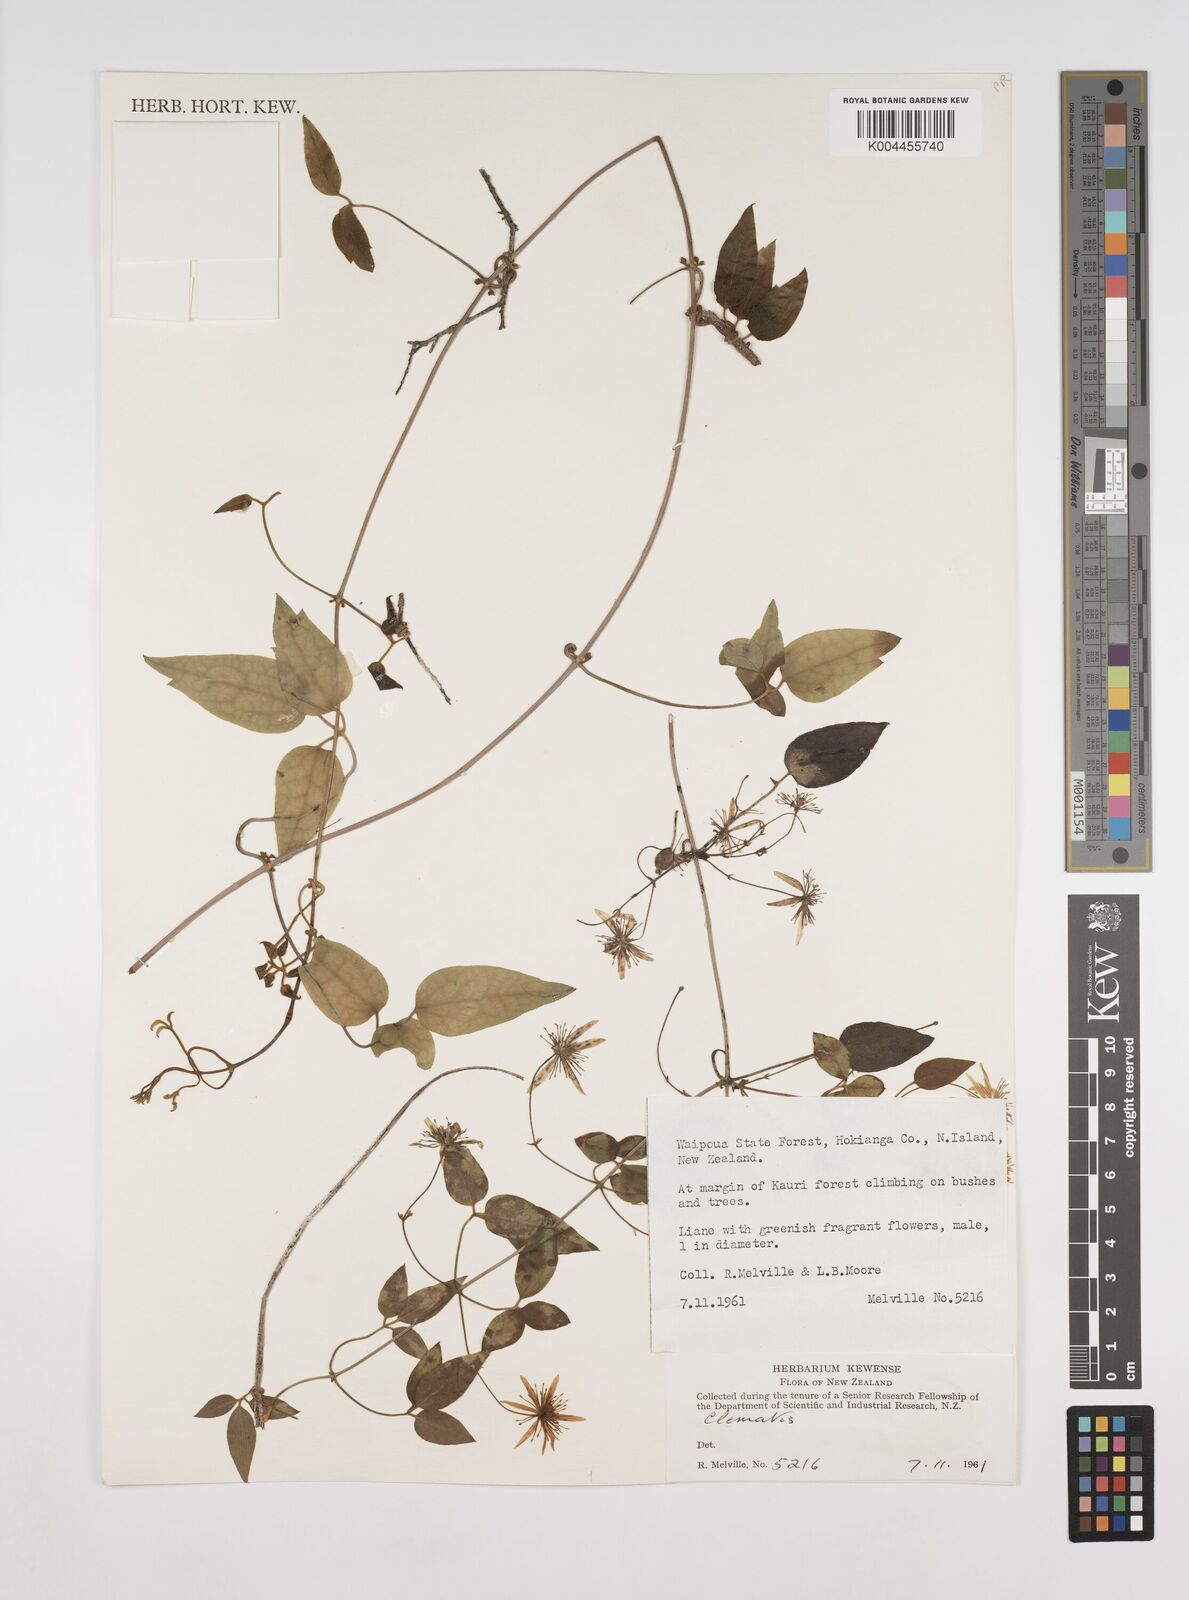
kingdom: Plantae
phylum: Tracheophyta
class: Magnoliopsida
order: Ranunculales
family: Ranunculaceae
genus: Clematis
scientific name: Clematis
